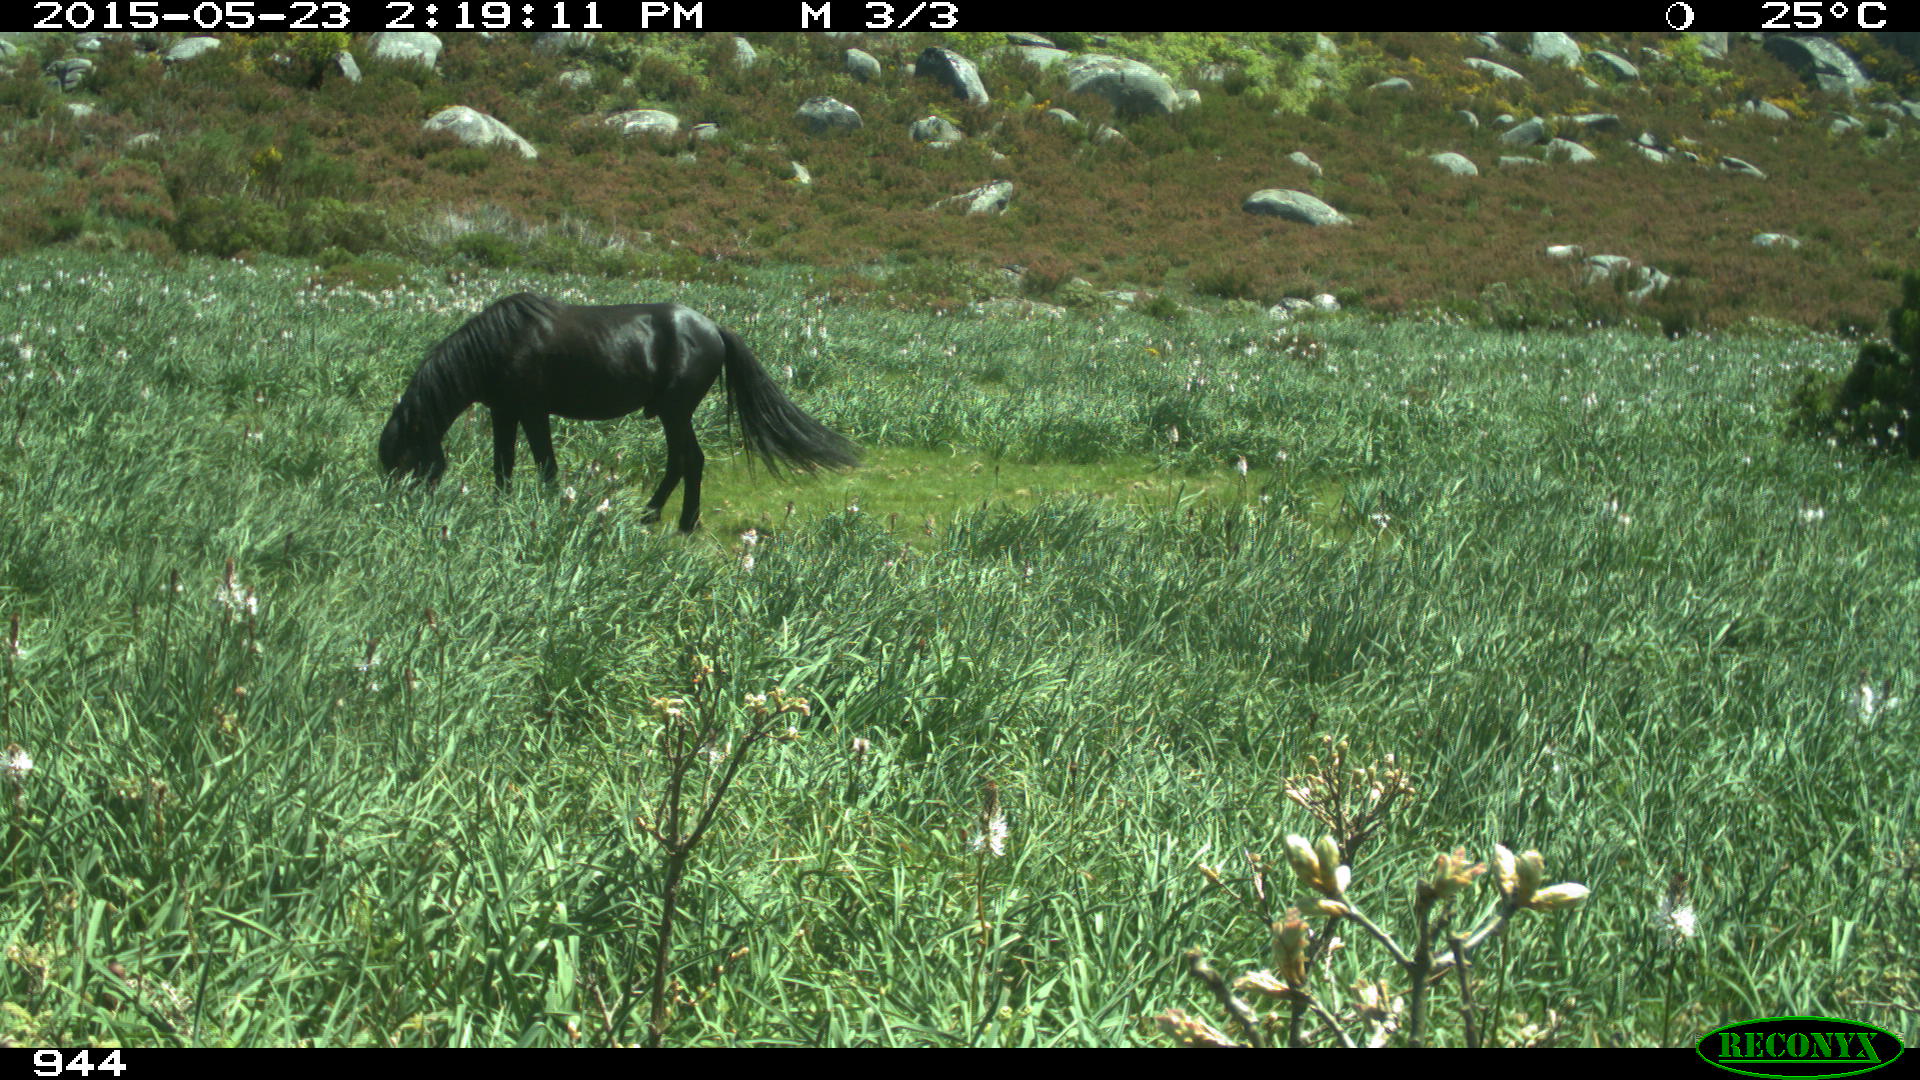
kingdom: Animalia
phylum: Chordata
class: Mammalia
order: Perissodactyla
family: Equidae
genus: Equus
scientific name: Equus caballus
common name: Horse
